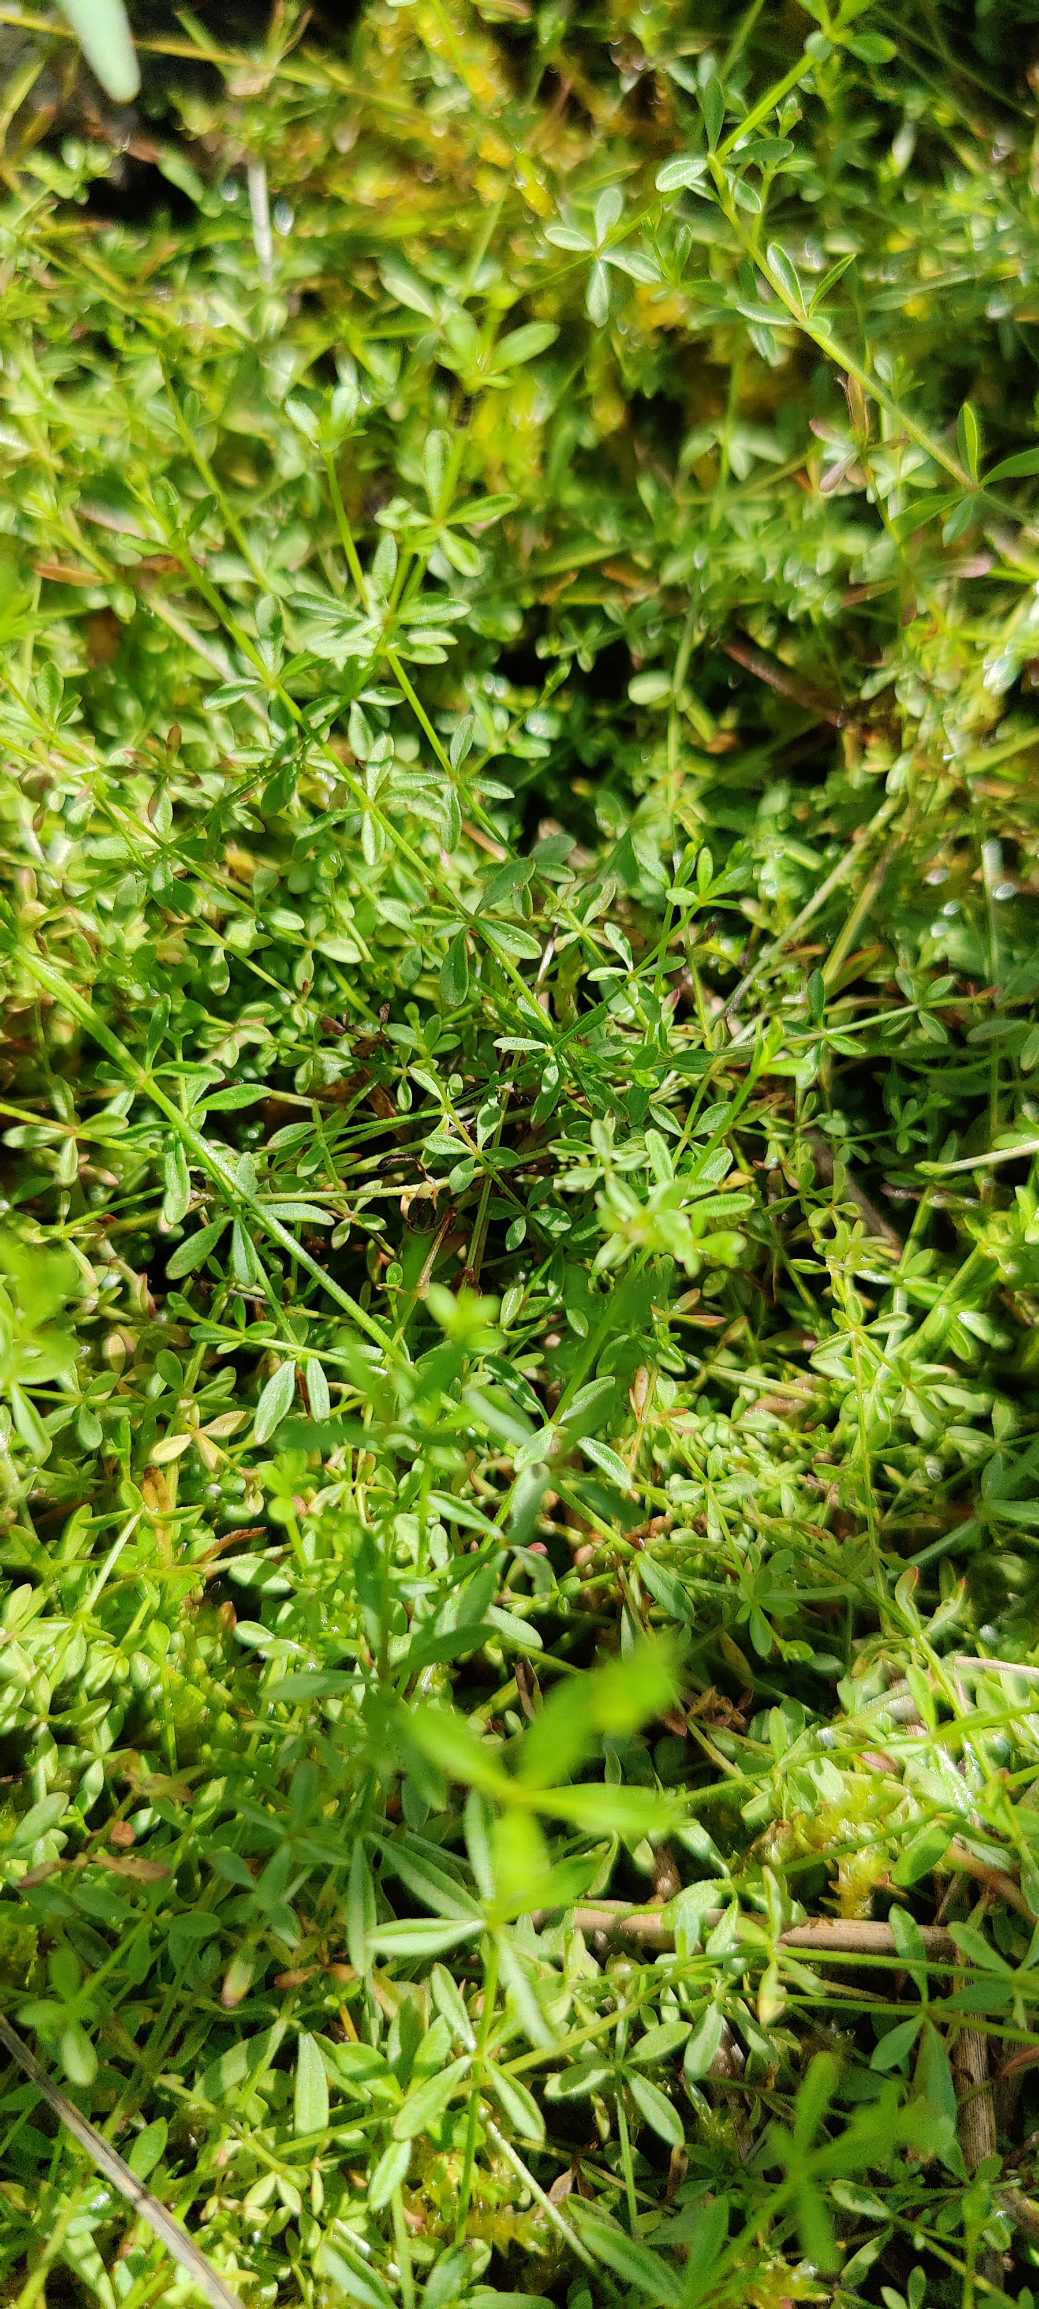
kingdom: Plantae
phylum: Tracheophyta
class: Magnoliopsida
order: Gentianales
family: Rubiaceae
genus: Galium
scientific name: Galium palustre
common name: Kær-snerre
